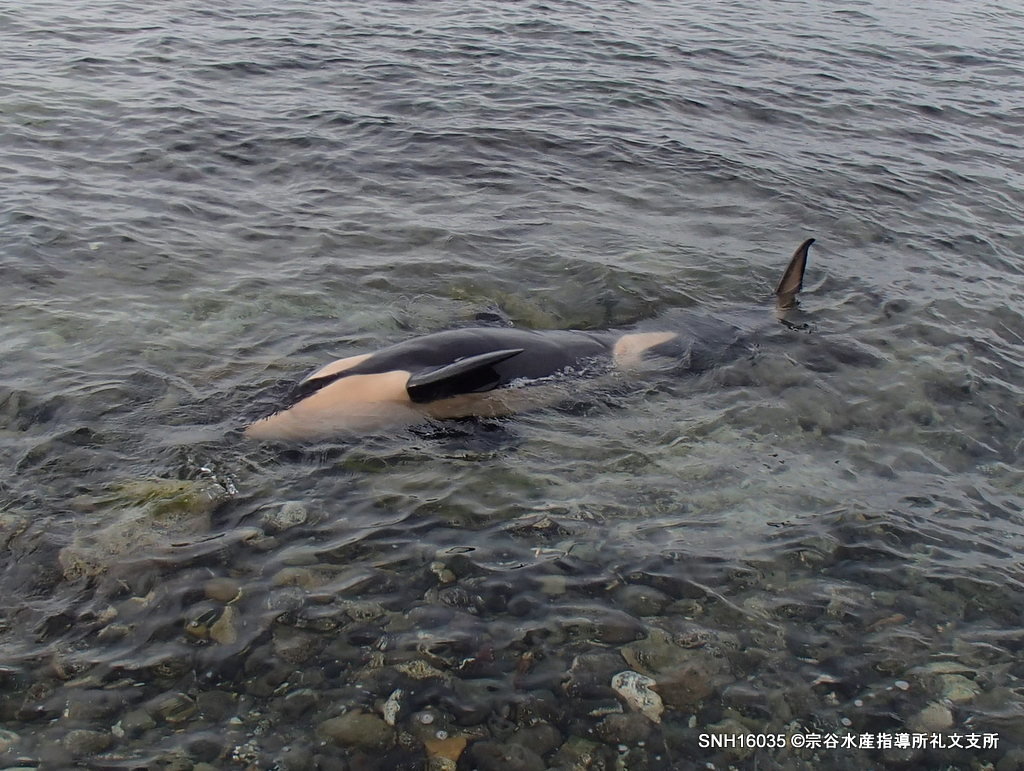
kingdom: Animalia
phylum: Chordata
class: Mammalia
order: Cetacea
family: Delphinidae
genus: Orcinus
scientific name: Orcinus orca
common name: Killer whale
